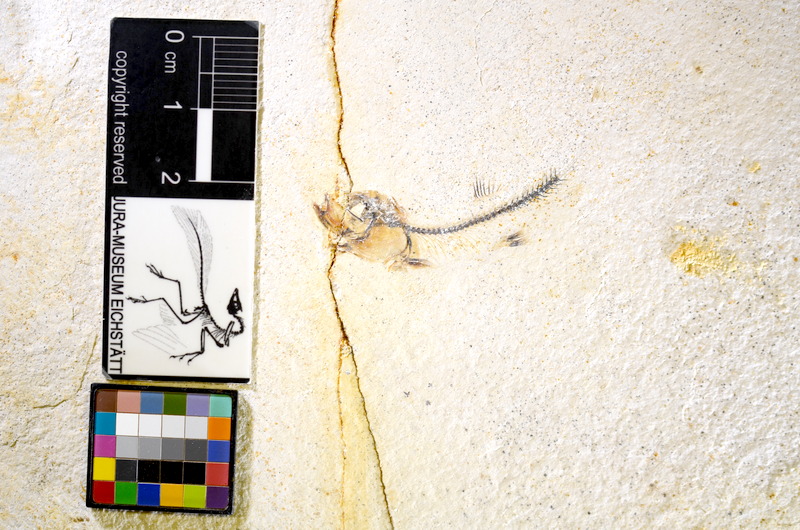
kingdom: Animalia
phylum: Chordata
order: Salmoniformes
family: Orthogonikleithridae
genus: Orthogonikleithrus
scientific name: Orthogonikleithrus hoelli
